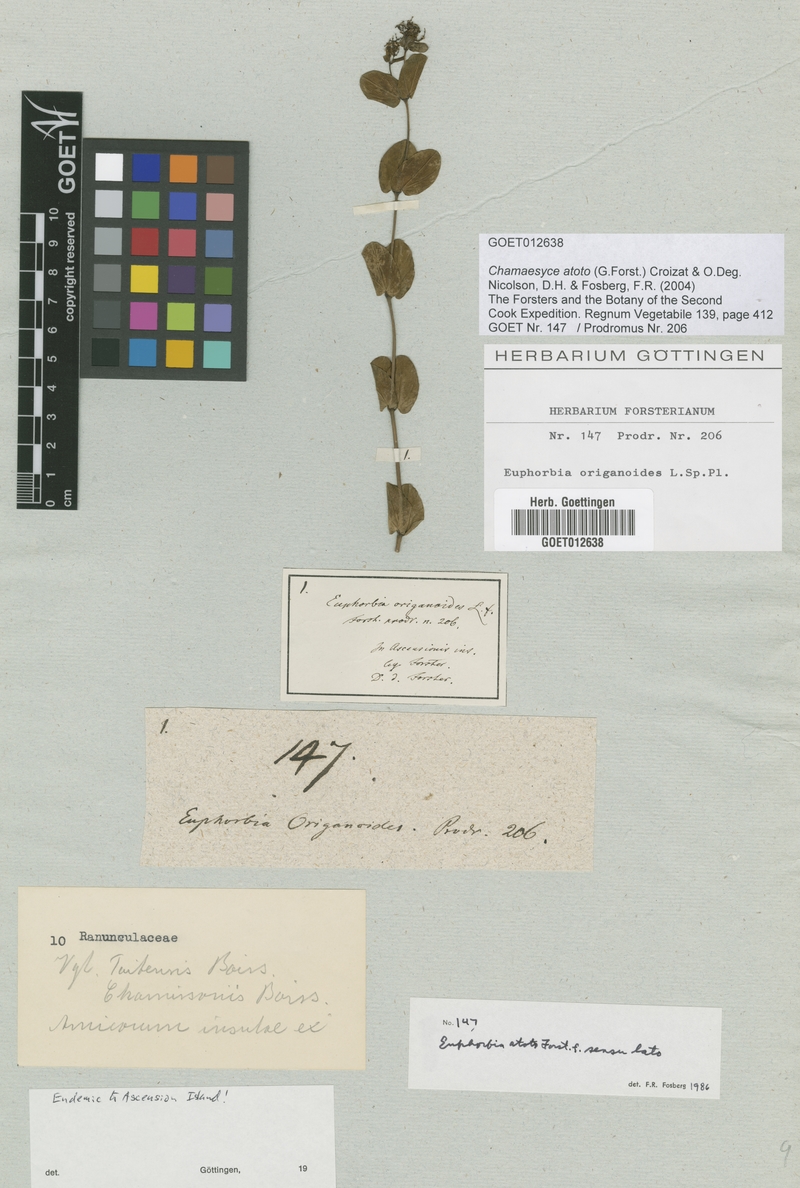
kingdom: Plantae
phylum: Tracheophyta
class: Magnoliopsida
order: Malpighiales
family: Euphorbiaceae
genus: Euphorbia
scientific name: Euphorbia atoto
